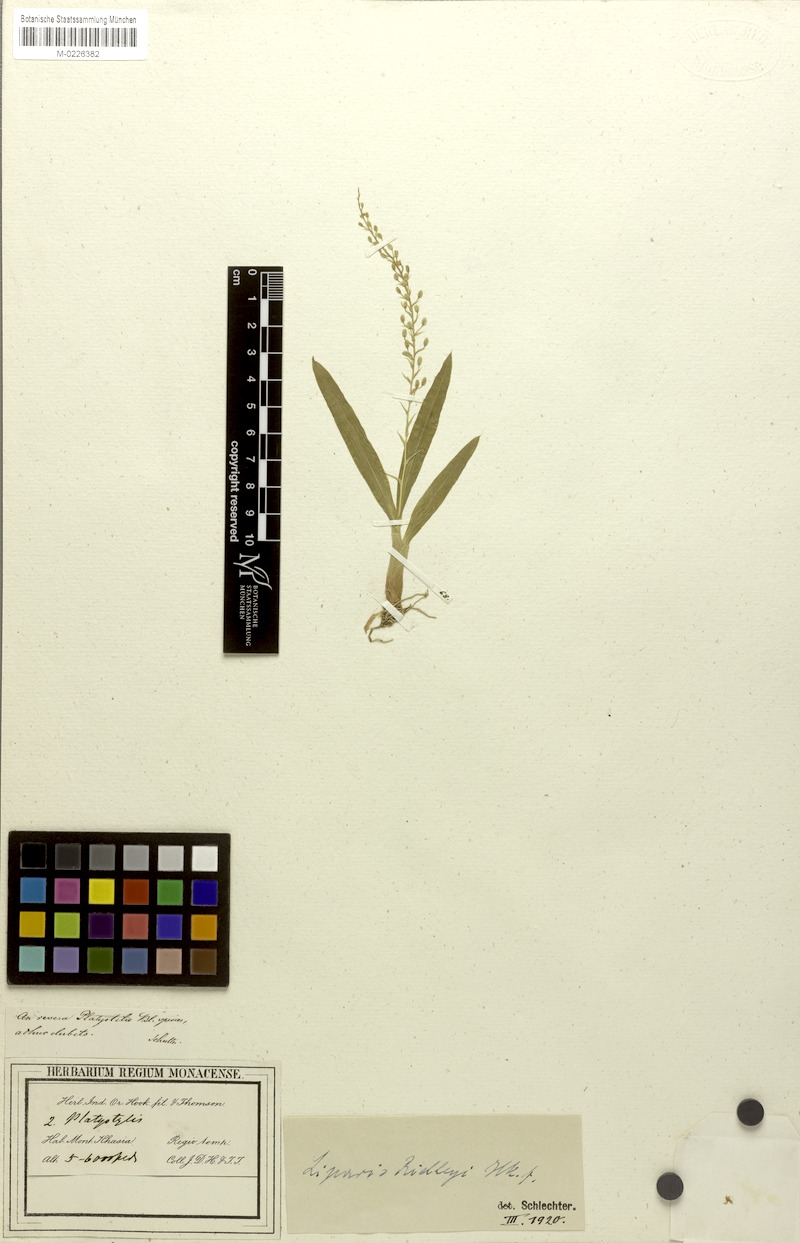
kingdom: Plantae
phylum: Tracheophyta
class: Liliopsida
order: Asparagales
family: Orchidaceae
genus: Liparis
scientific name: Liparis resupinata
